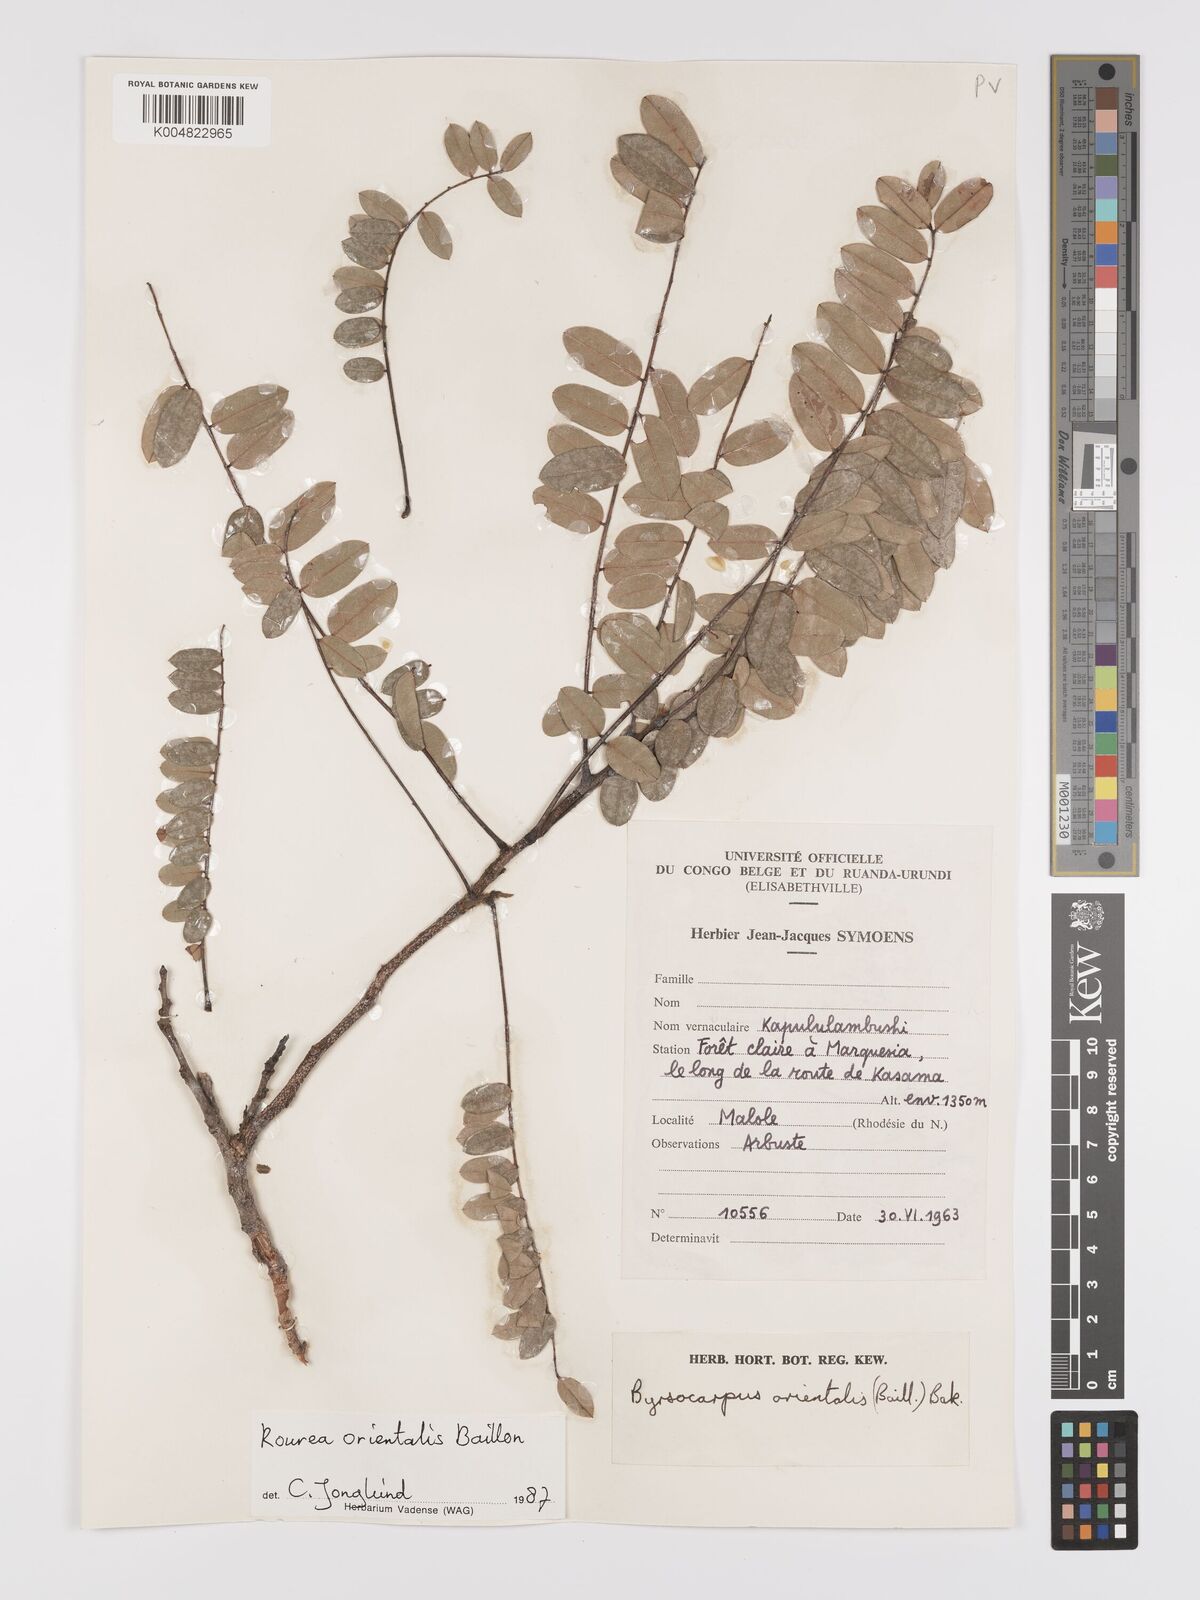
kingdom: Plantae
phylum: Tracheophyta
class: Magnoliopsida
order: Oxalidales
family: Connaraceae
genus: Rourea
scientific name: Rourea orientalis
